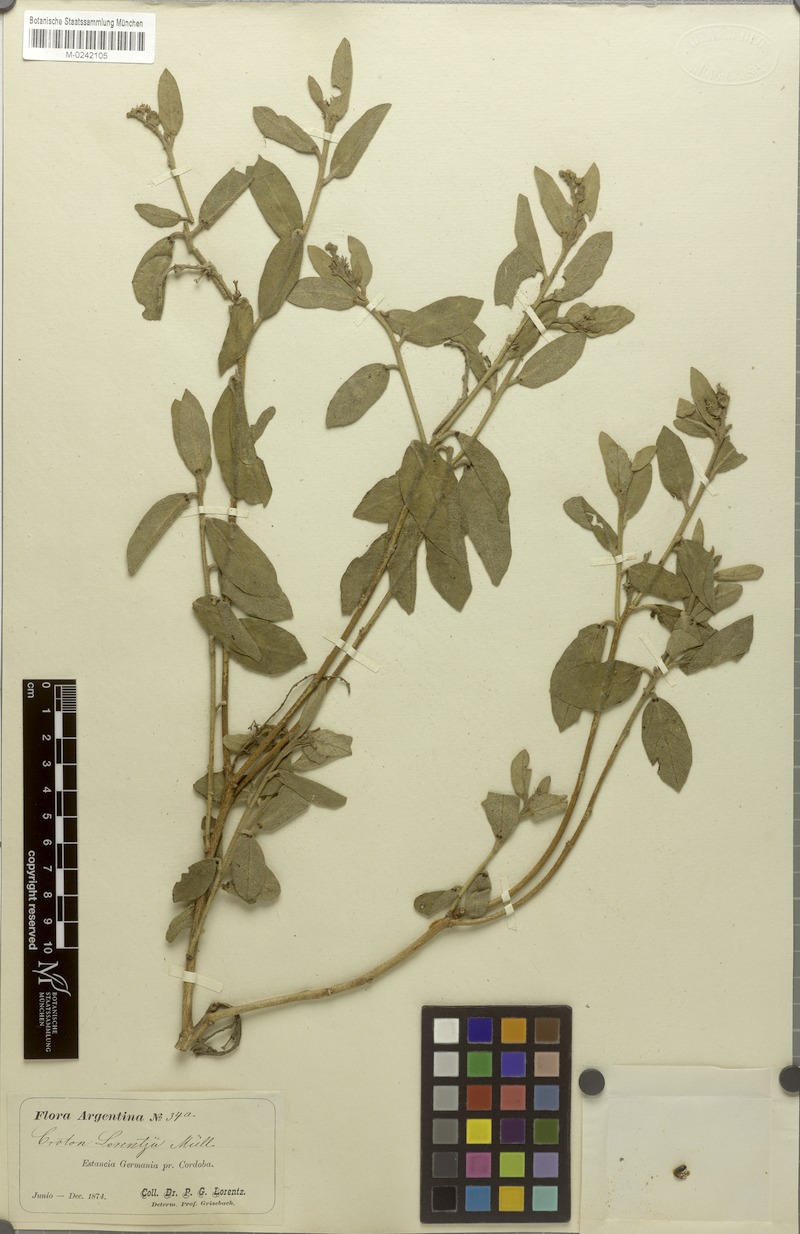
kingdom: Plantae
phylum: Tracheophyta
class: Magnoliopsida
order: Malpighiales
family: Euphorbiaceae
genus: Croton
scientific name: Croton lanatus
